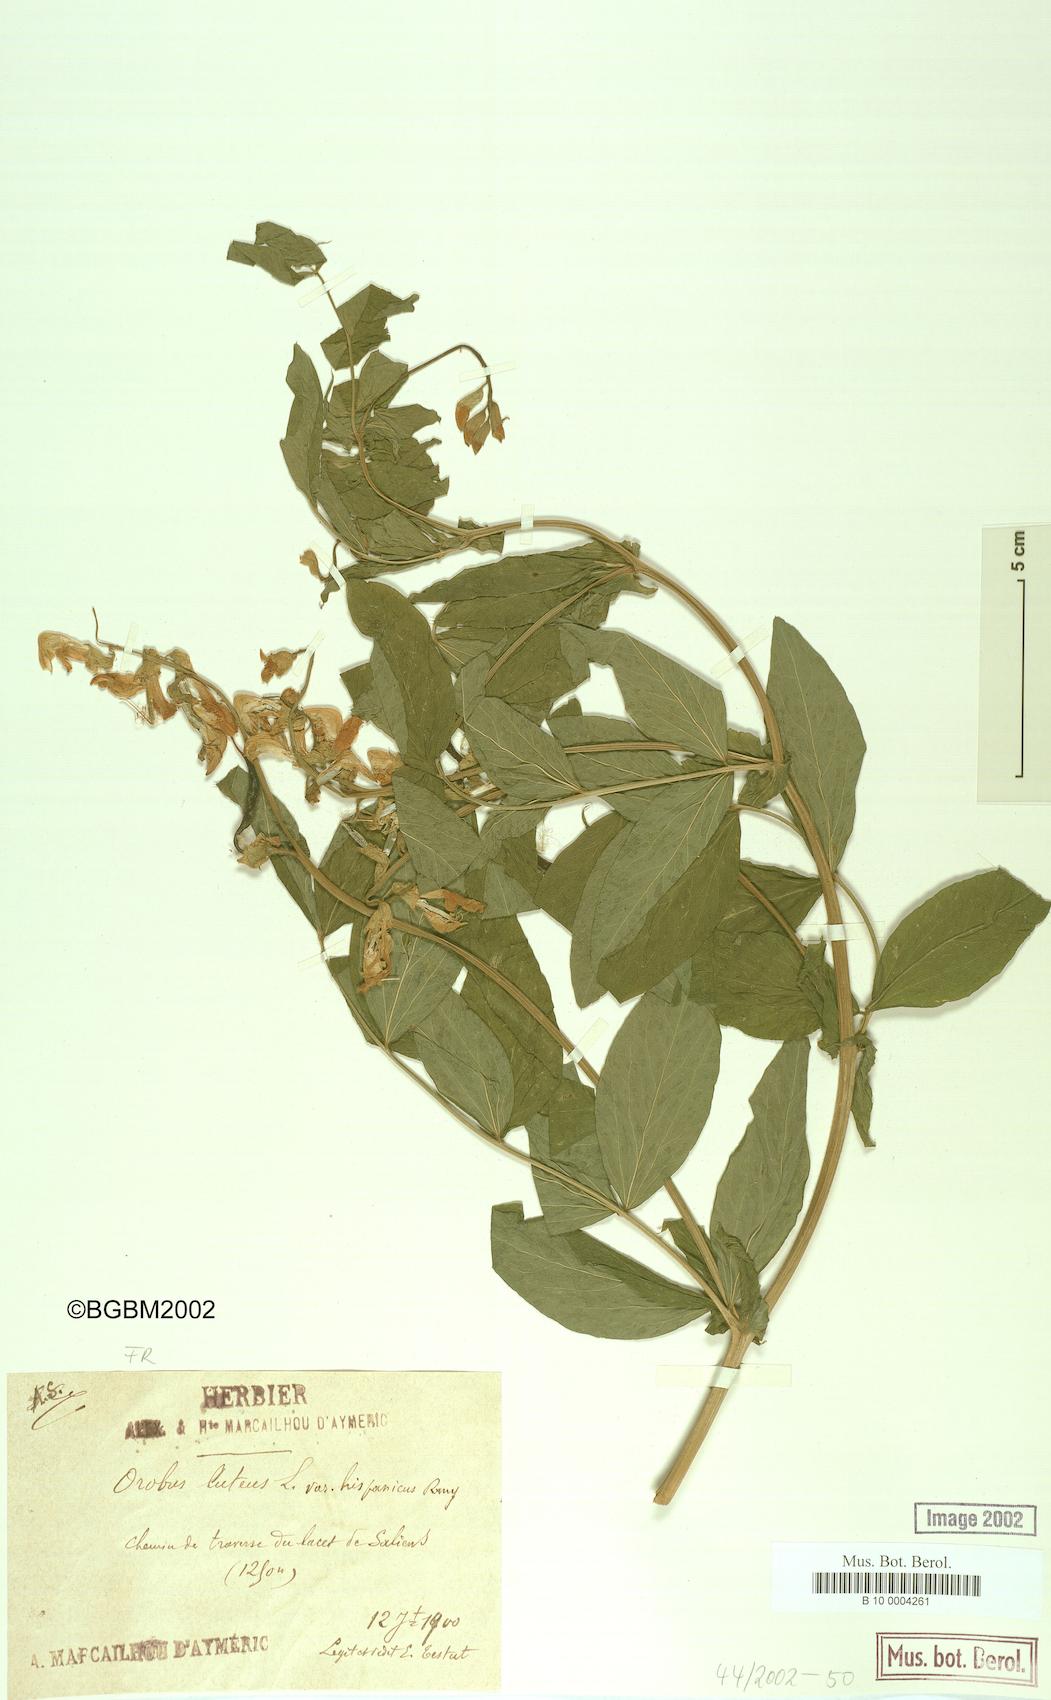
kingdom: Plantae
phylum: Tracheophyta
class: Magnoliopsida
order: Fabales
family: Fabaceae
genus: Lathyrus
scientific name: Lathyrus gmelinii
